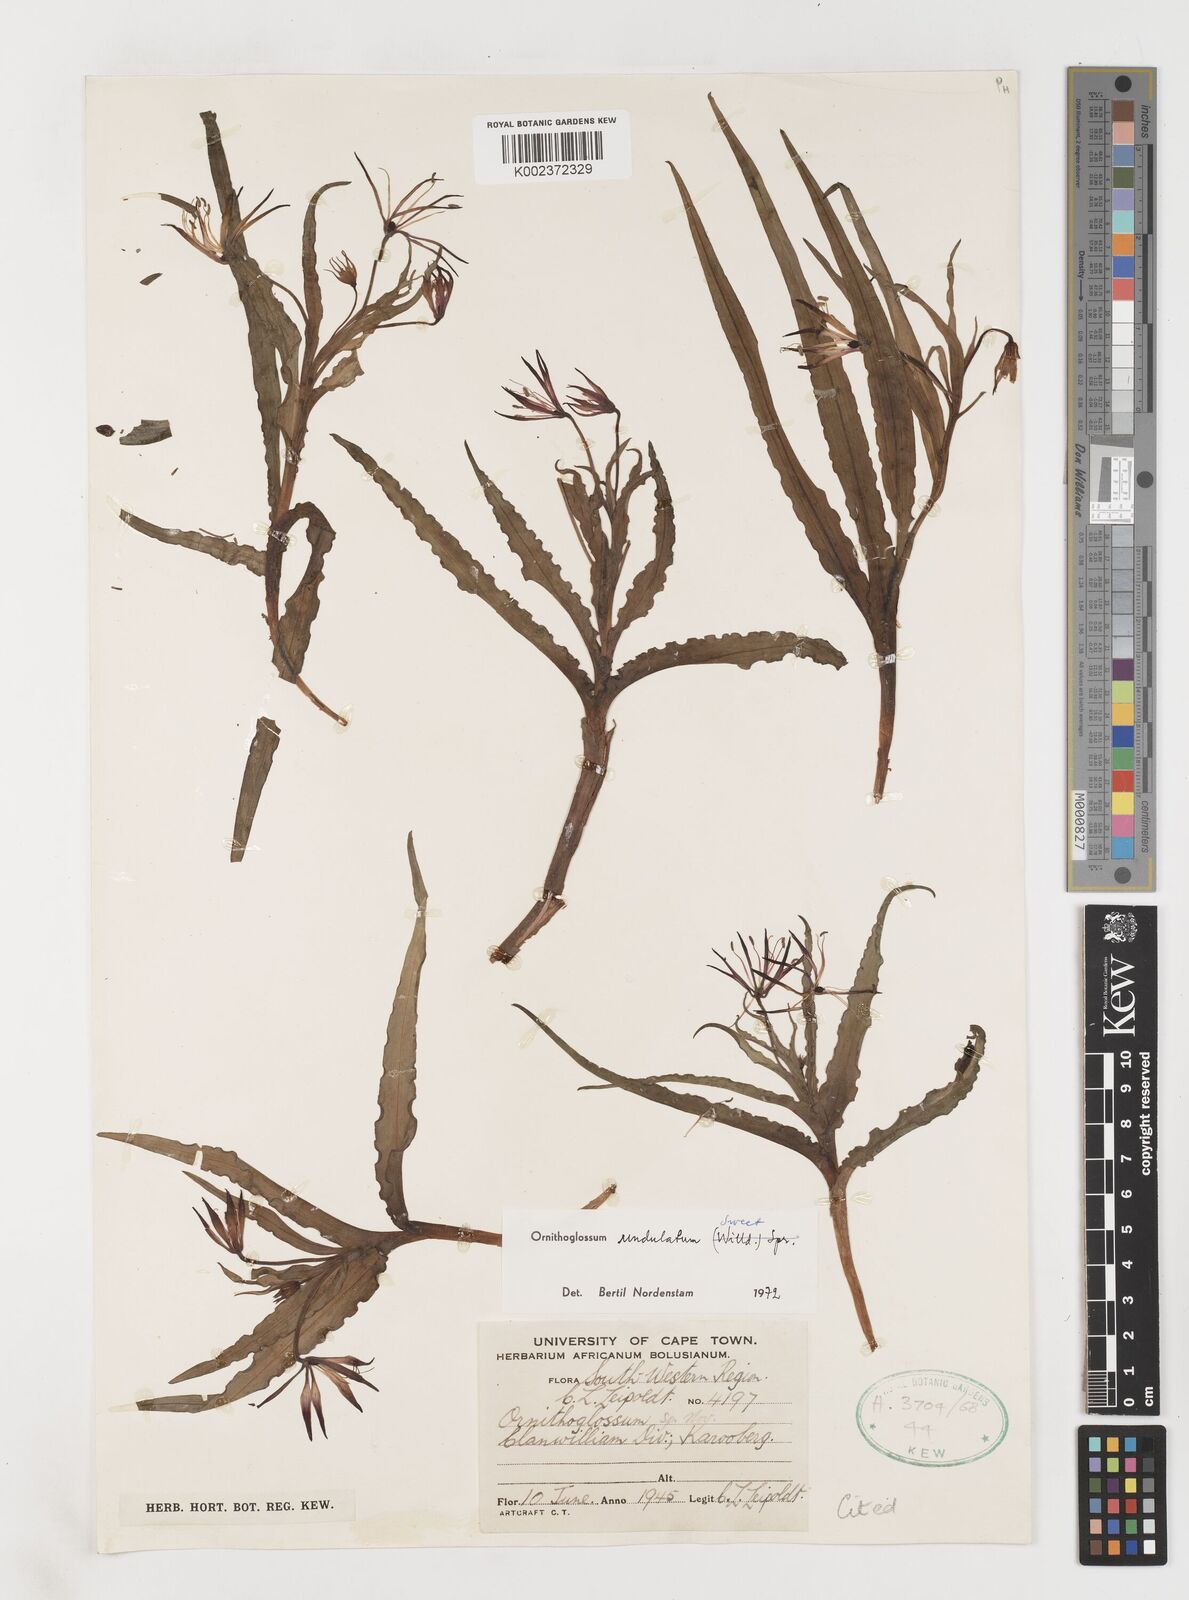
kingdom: Plantae
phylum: Tracheophyta
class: Liliopsida
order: Liliales
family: Colchicaceae
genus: Ornithoglossum
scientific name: Ornithoglossum undulatum
